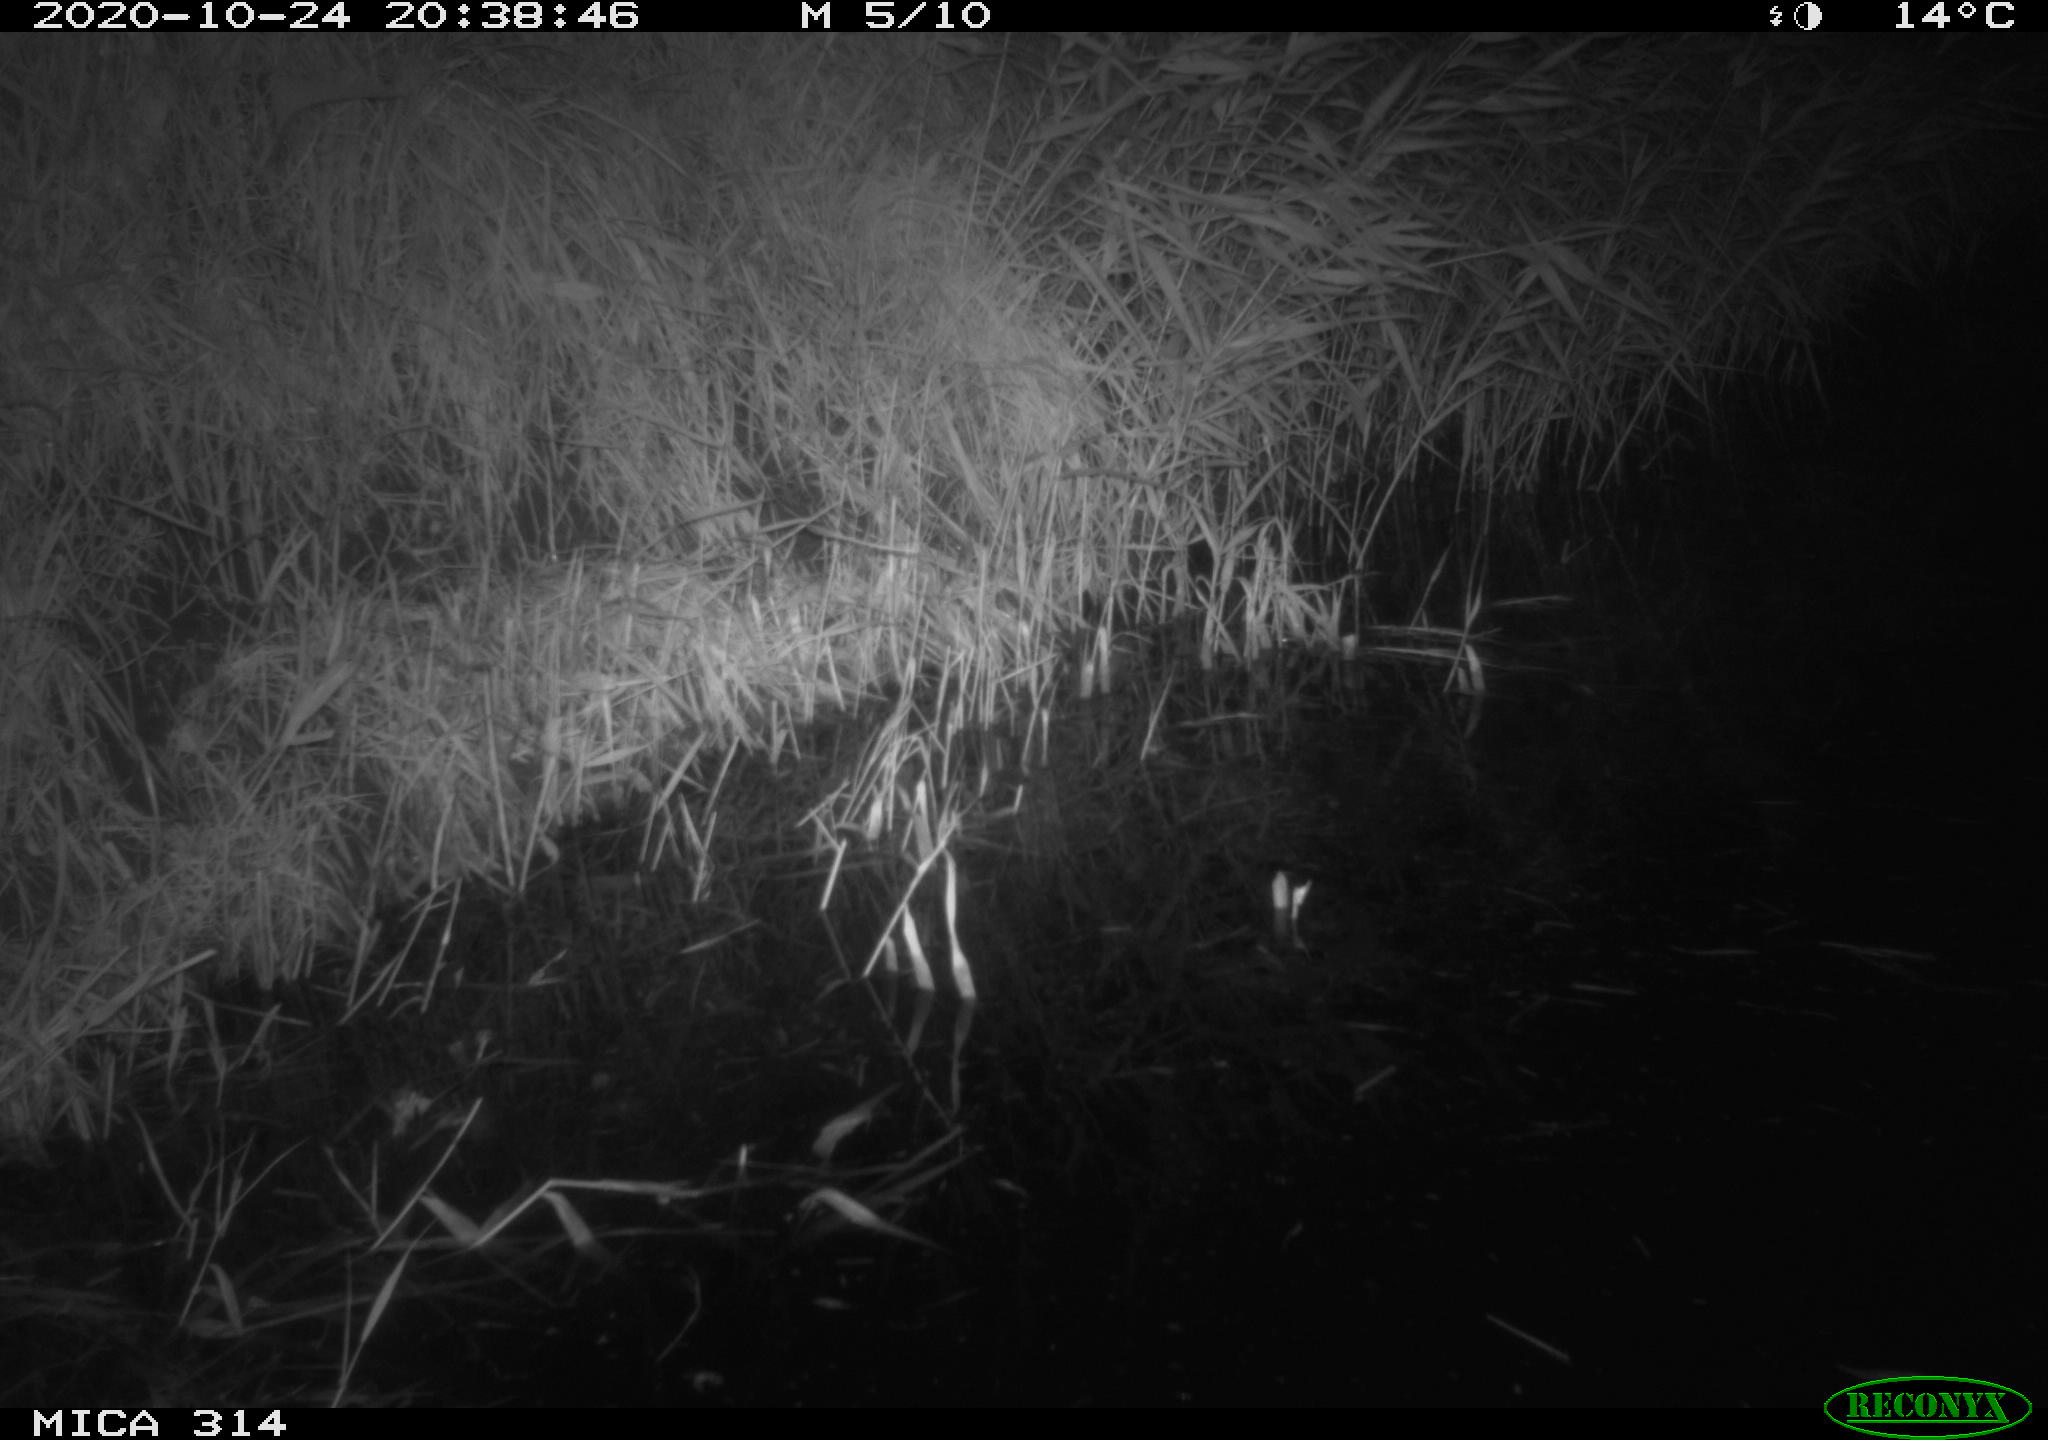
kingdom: Animalia
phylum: Chordata
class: Mammalia
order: Rodentia
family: Muridae
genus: Rattus
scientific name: Rattus norvegicus
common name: Brown rat
